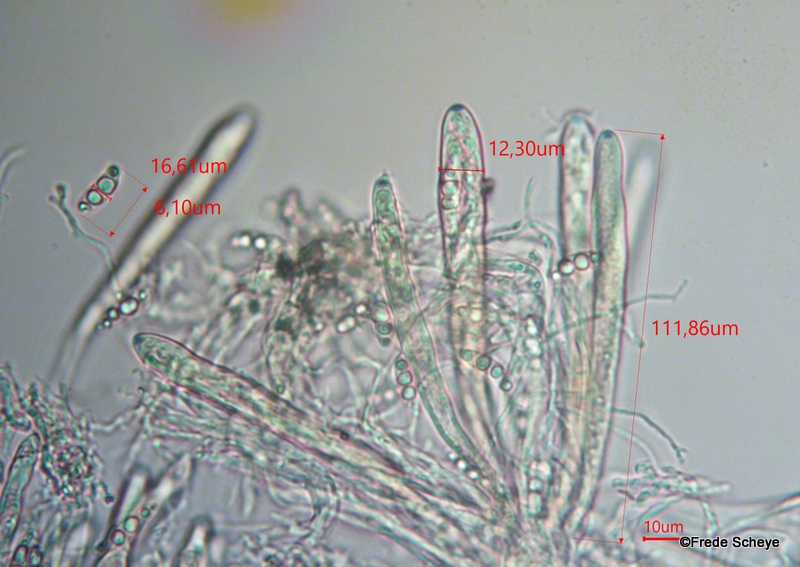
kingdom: Fungi
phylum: Ascomycota
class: Leotiomycetes
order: Helotiales
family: Hyaloscyphaceae
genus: Polydesmia
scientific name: Polydesmia pruinosa
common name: dunskive
